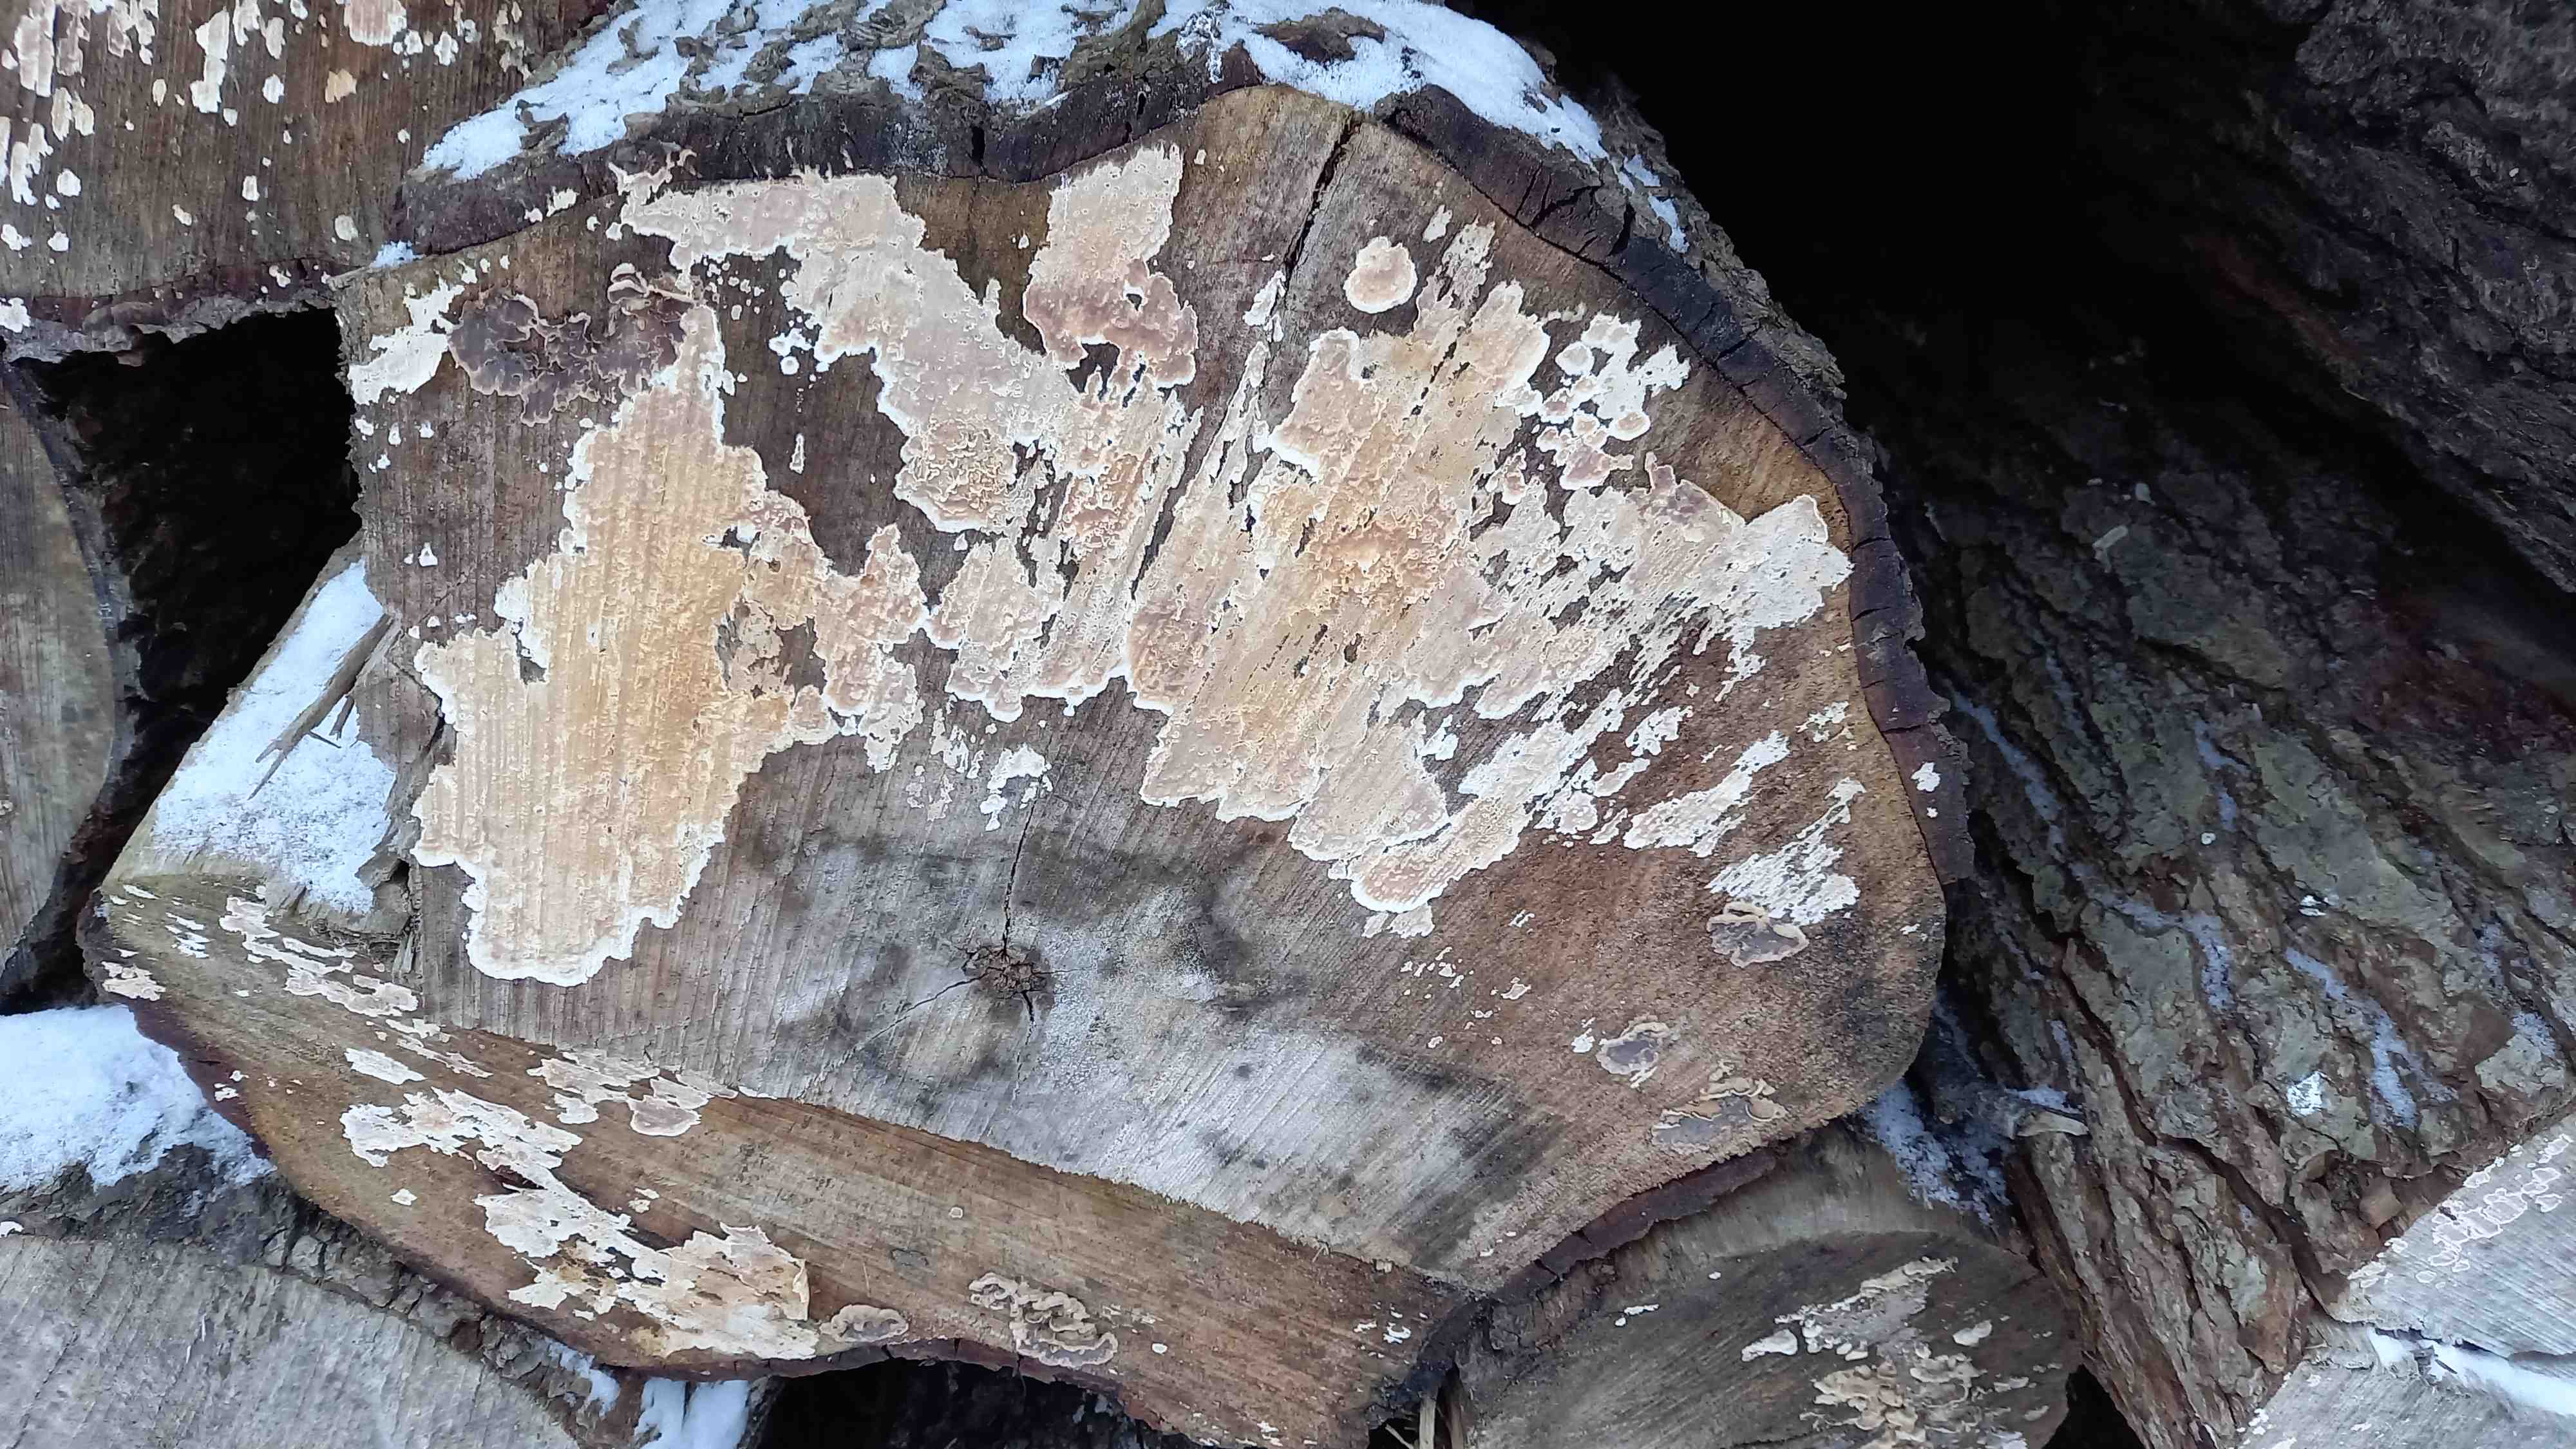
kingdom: Fungi
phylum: Basidiomycota
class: Agaricomycetes
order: Agaricales
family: Physalacriaceae
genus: Cylindrobasidium
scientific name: Cylindrobasidium evolvens
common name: sprækkehinde
